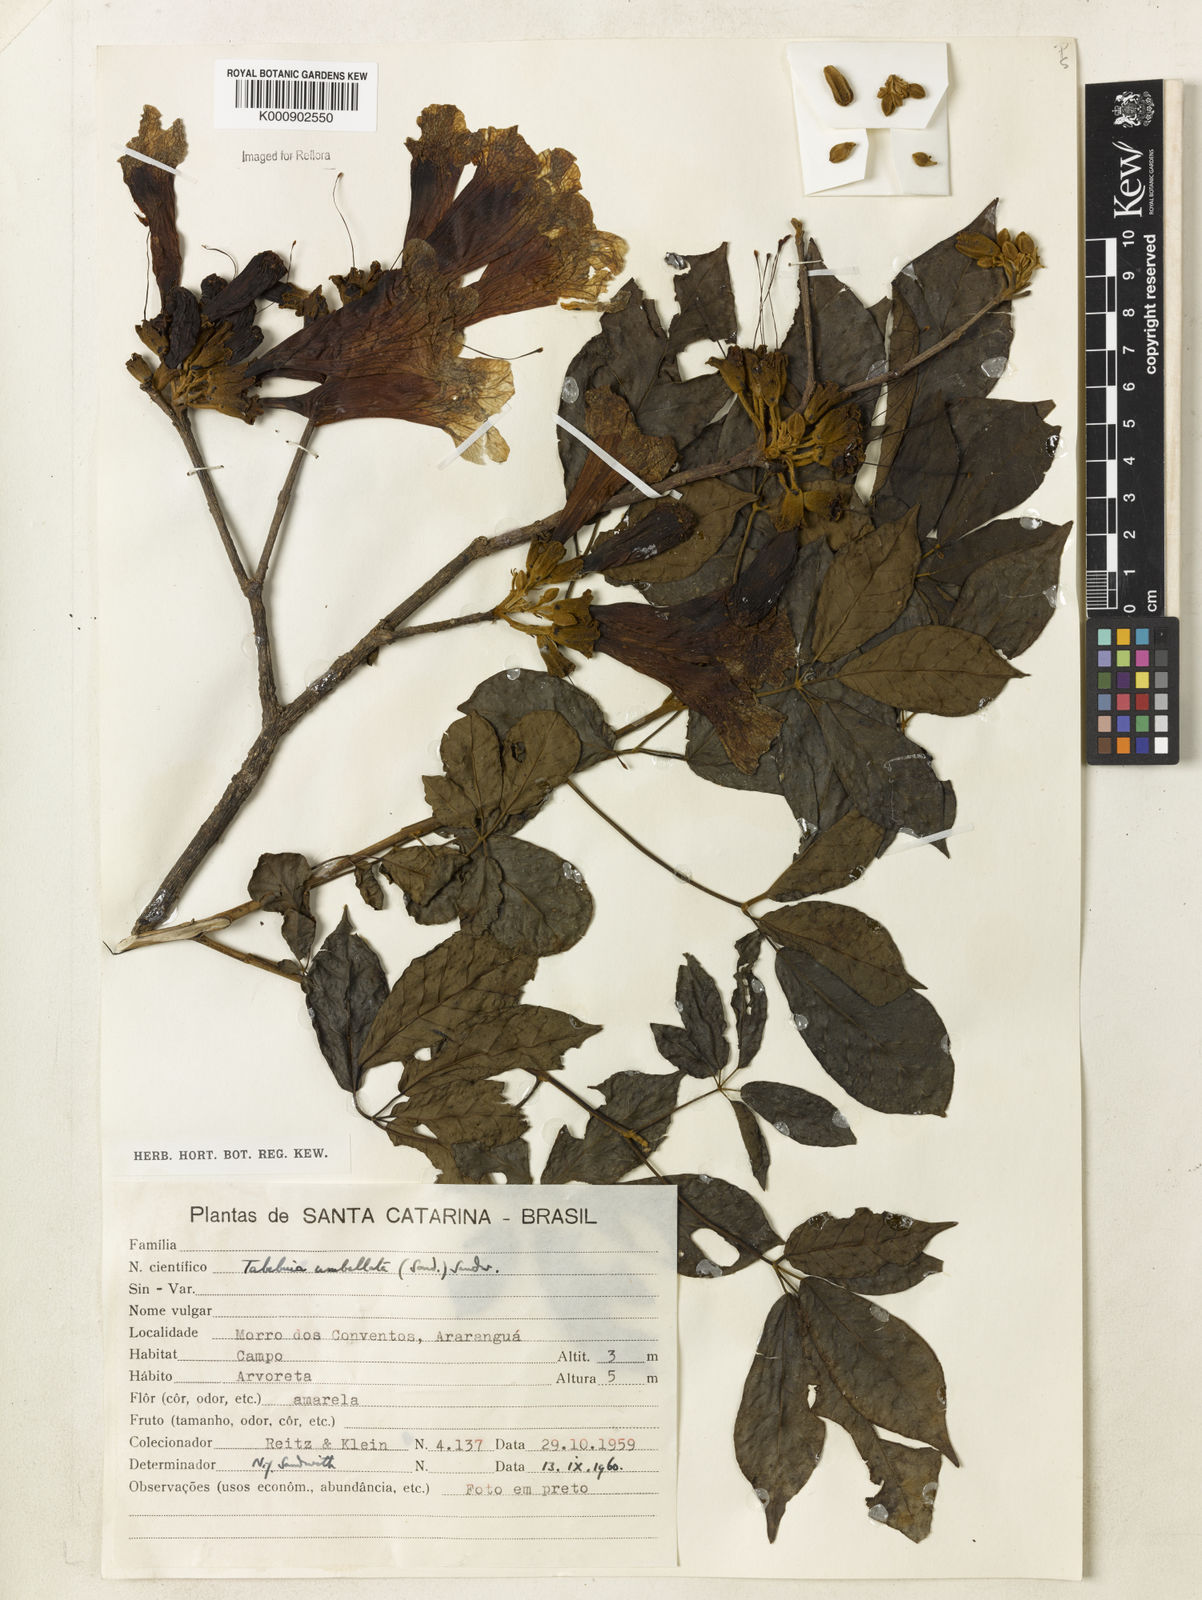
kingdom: Plantae
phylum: Tracheophyta
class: Magnoliopsida
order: Lamiales
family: Bignoniaceae
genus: Handroanthus
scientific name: Handroanthus umbellatus
